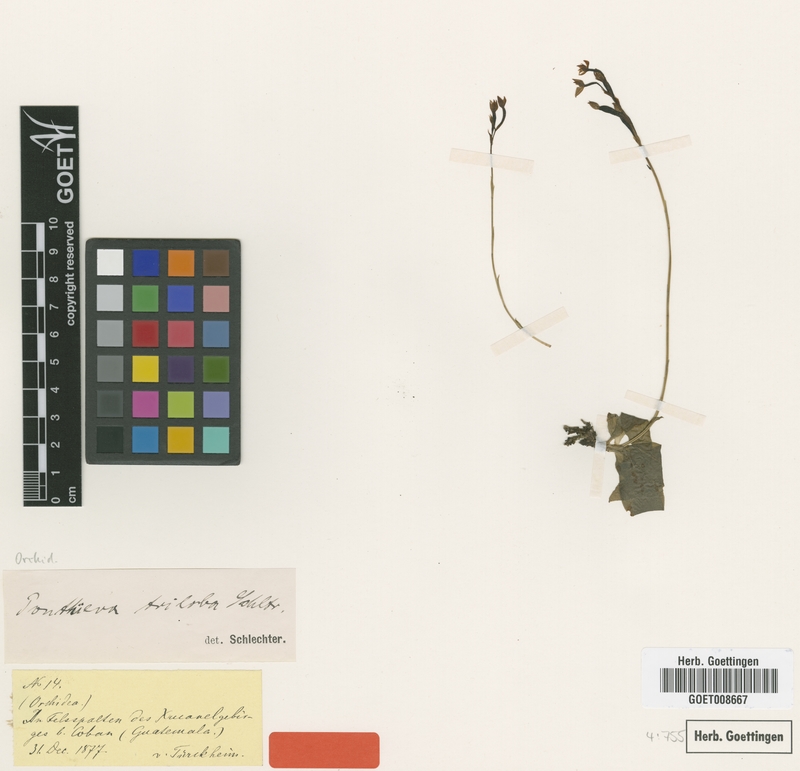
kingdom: Plantae
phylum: Tracheophyta
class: Liliopsida
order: Asparagales
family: Orchidaceae
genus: Ponthieva
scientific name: Ponthieva triloba
